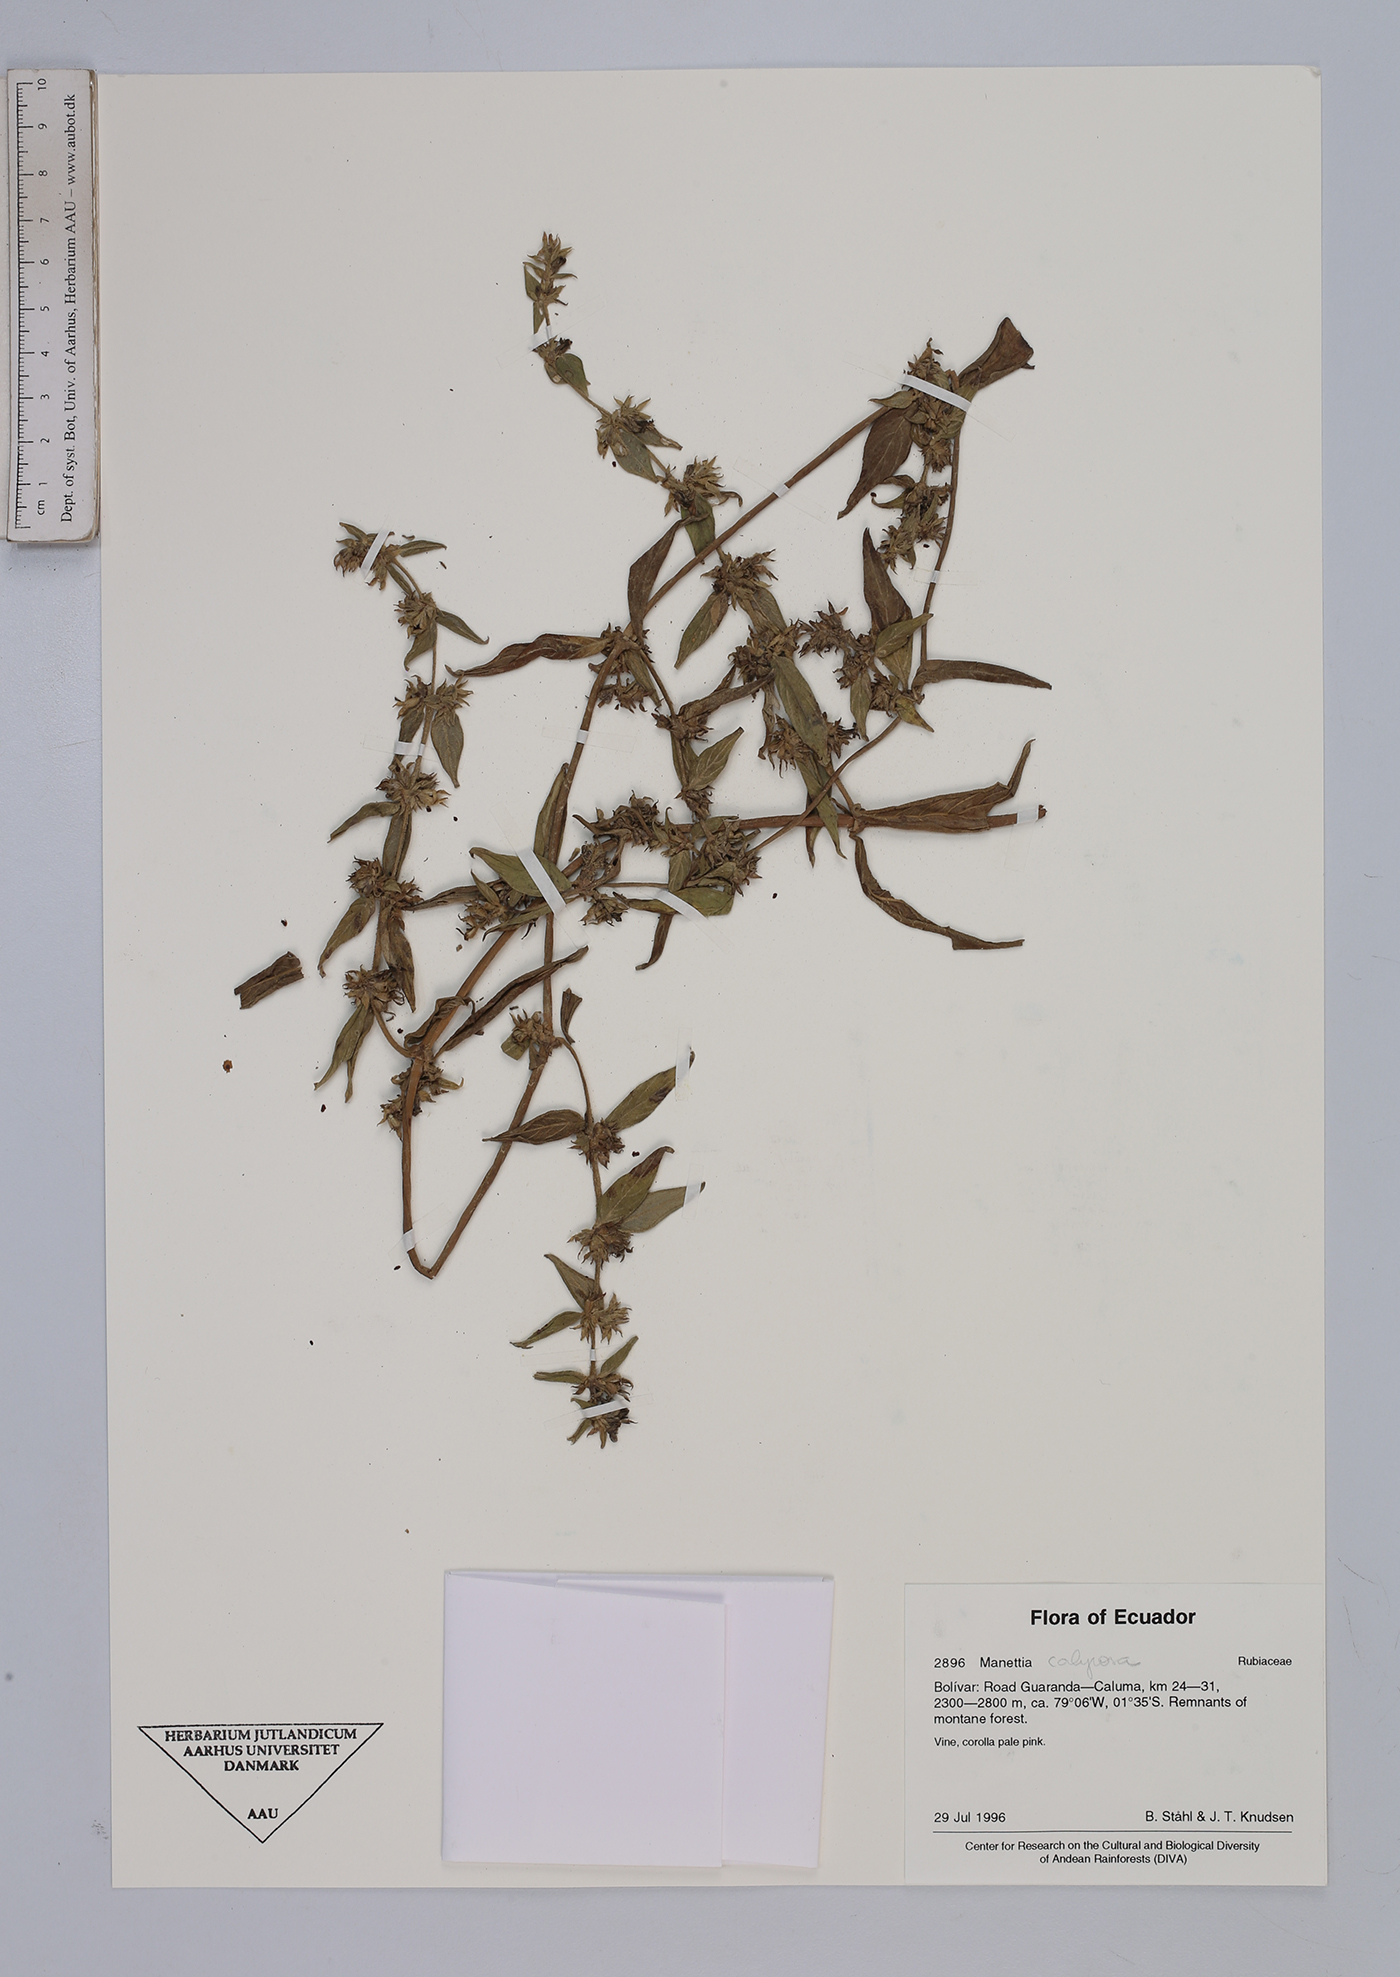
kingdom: Plantae
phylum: Tracheophyta
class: Magnoliopsida
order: Gentianales
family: Rubiaceae
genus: Manettia
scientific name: Manettia calycosa
